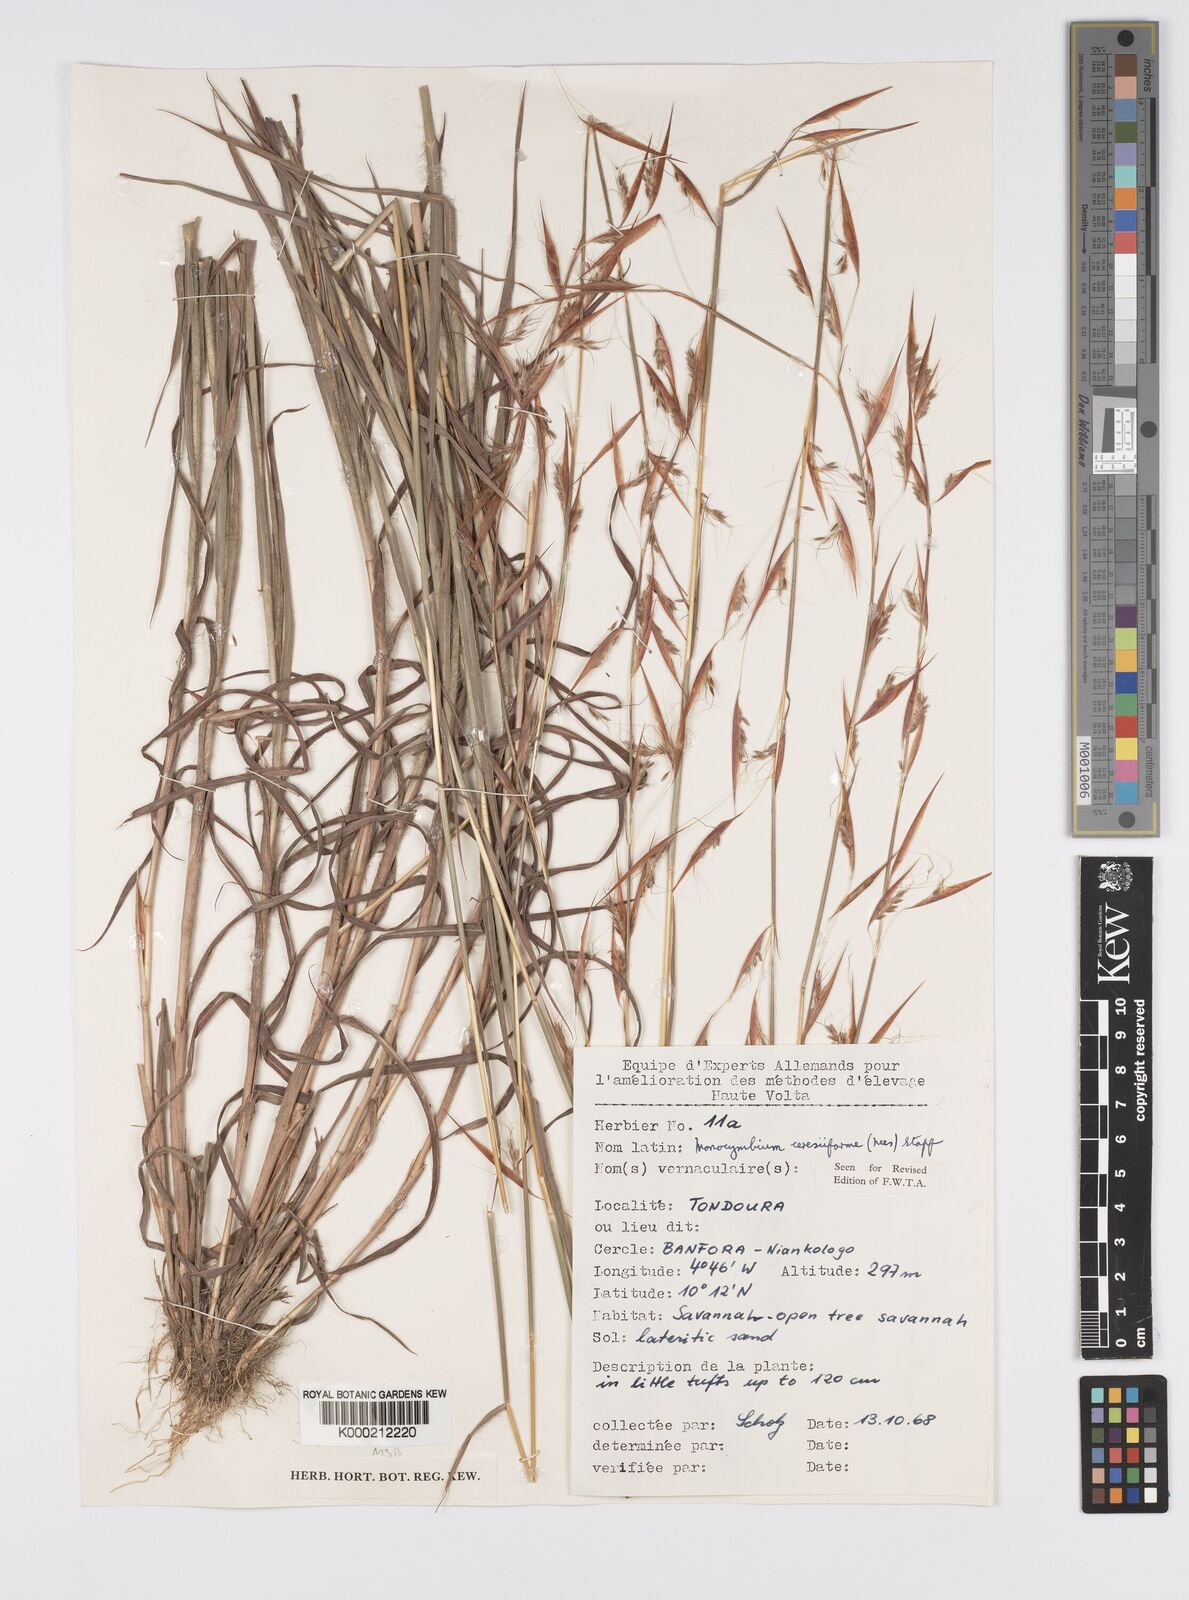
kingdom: Plantae
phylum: Tracheophyta
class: Liliopsida
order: Poales
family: Poaceae
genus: Monocymbium
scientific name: Monocymbium ceresiiforme
